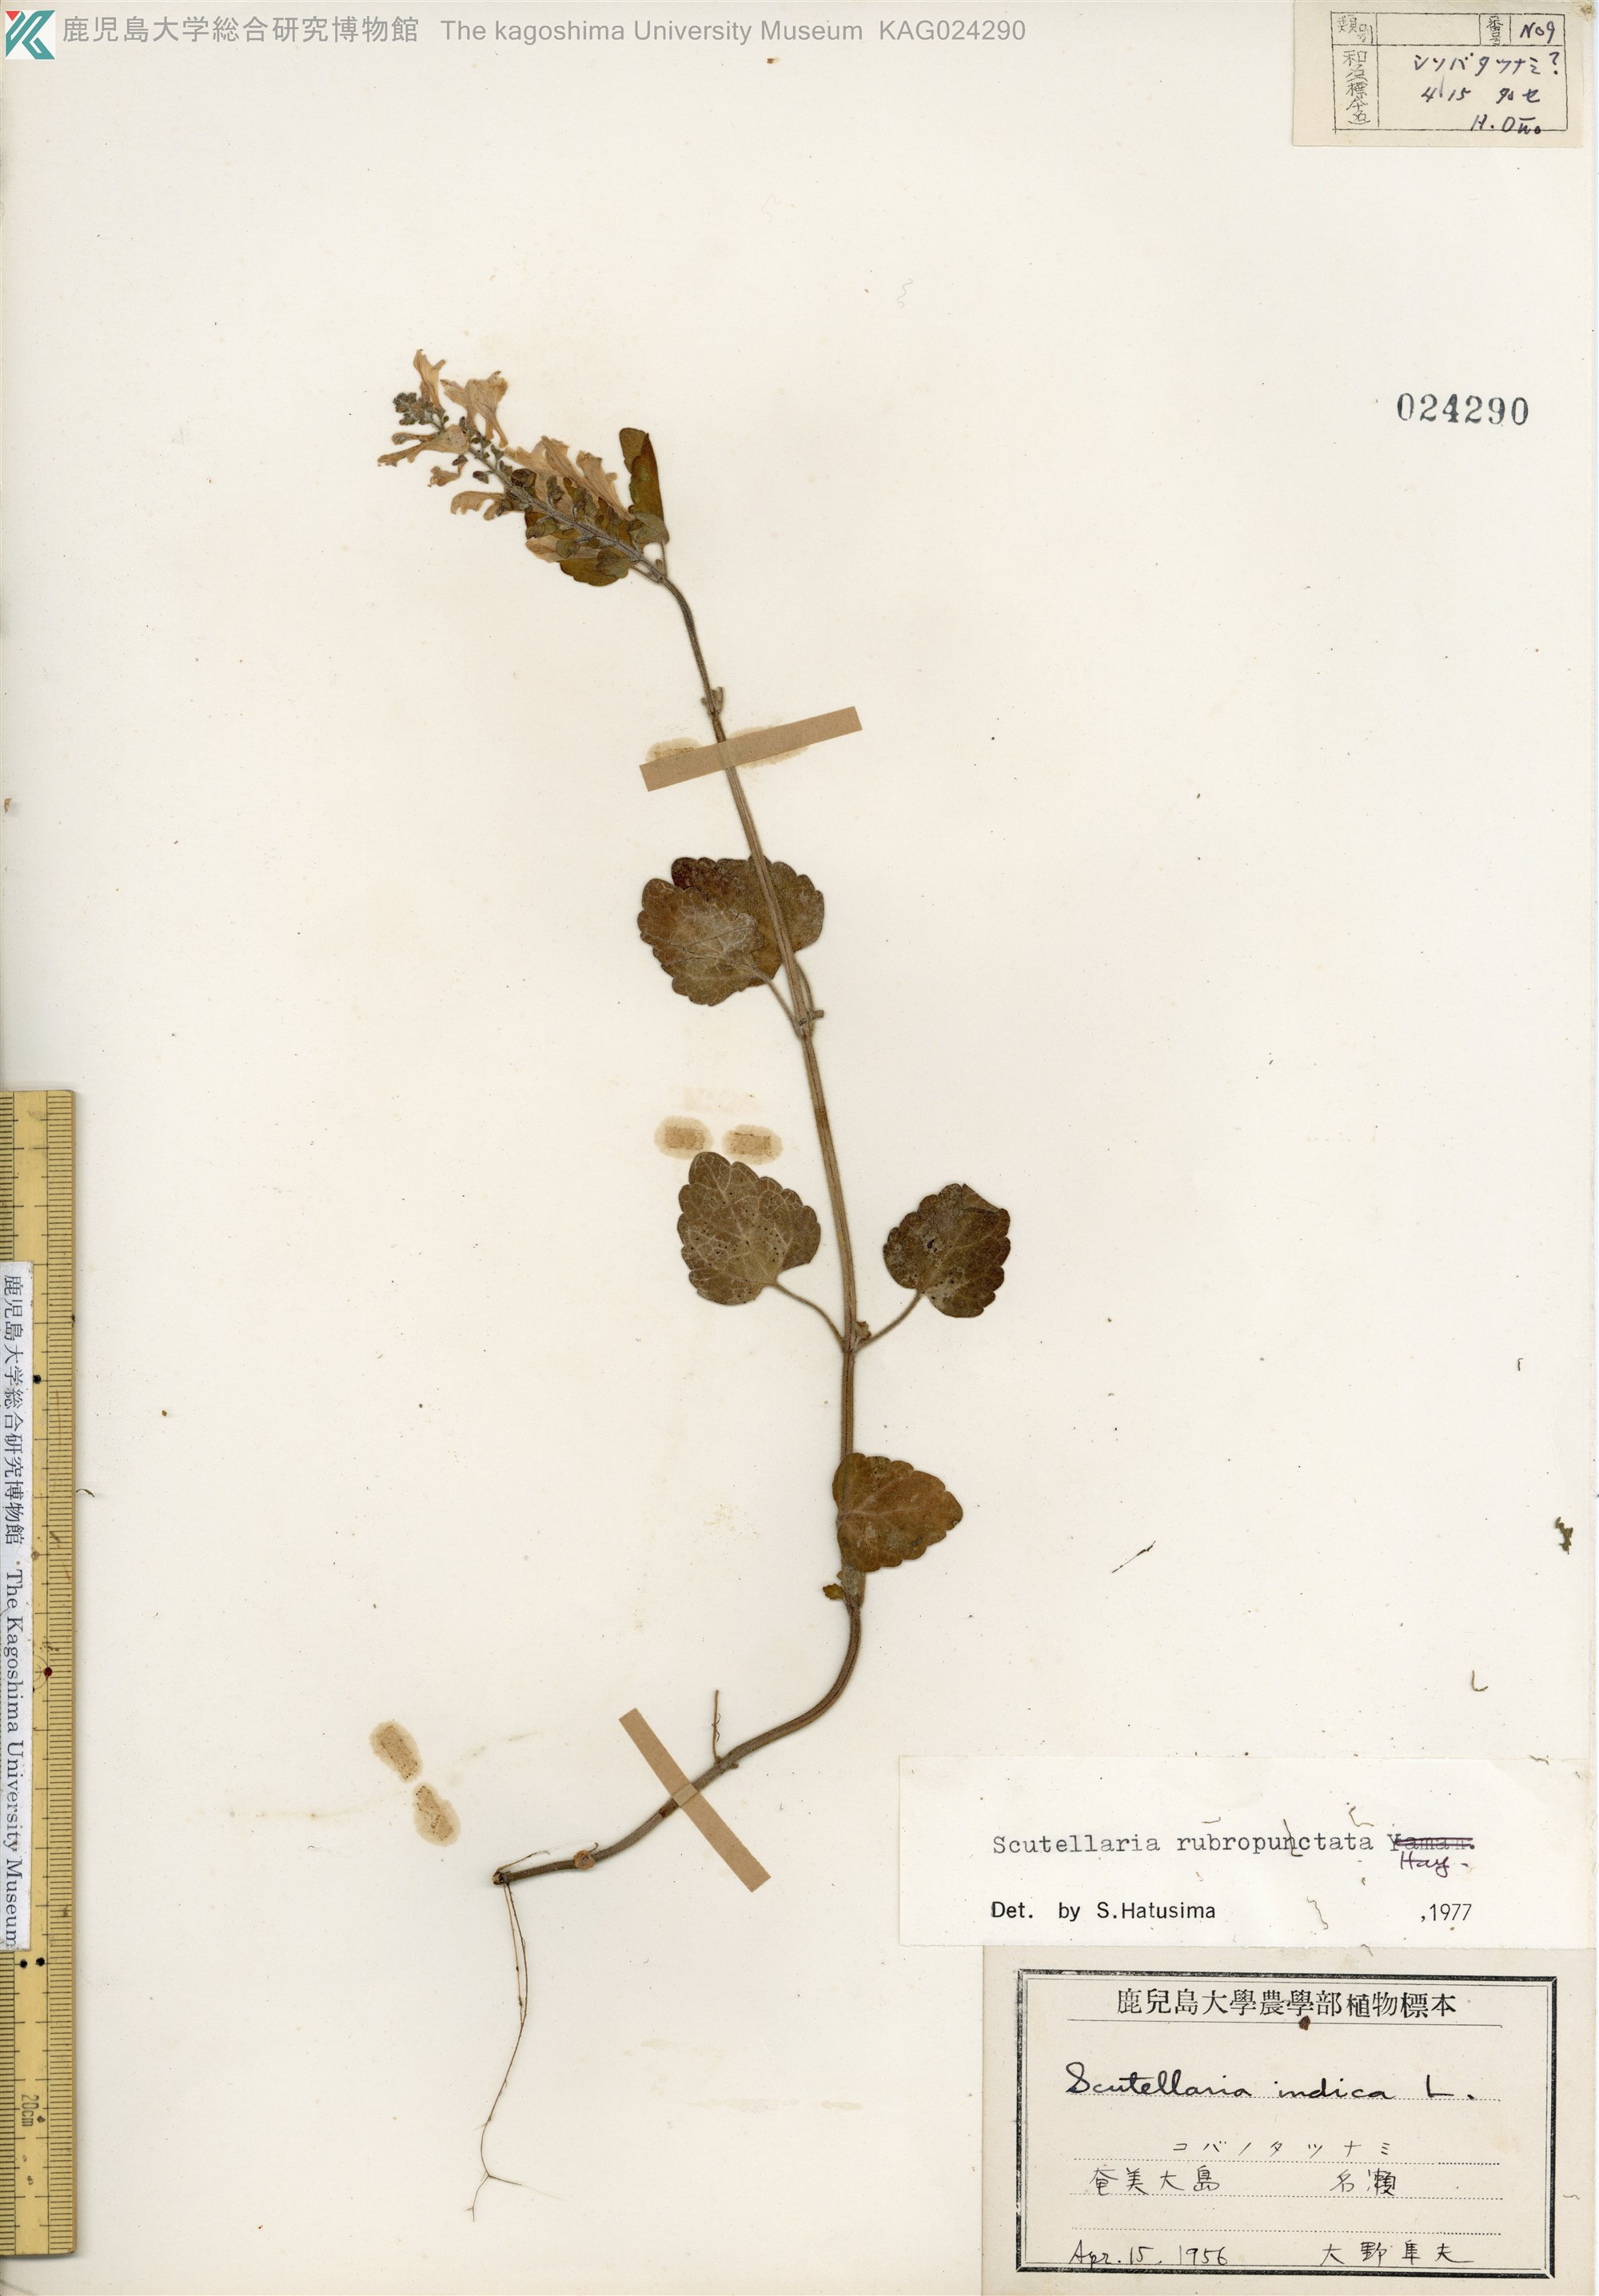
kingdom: Plantae
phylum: Tracheophyta
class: Magnoliopsida
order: Lamiales
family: Lamiaceae
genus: Scutellaria
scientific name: Scutellaria rubropunctata
